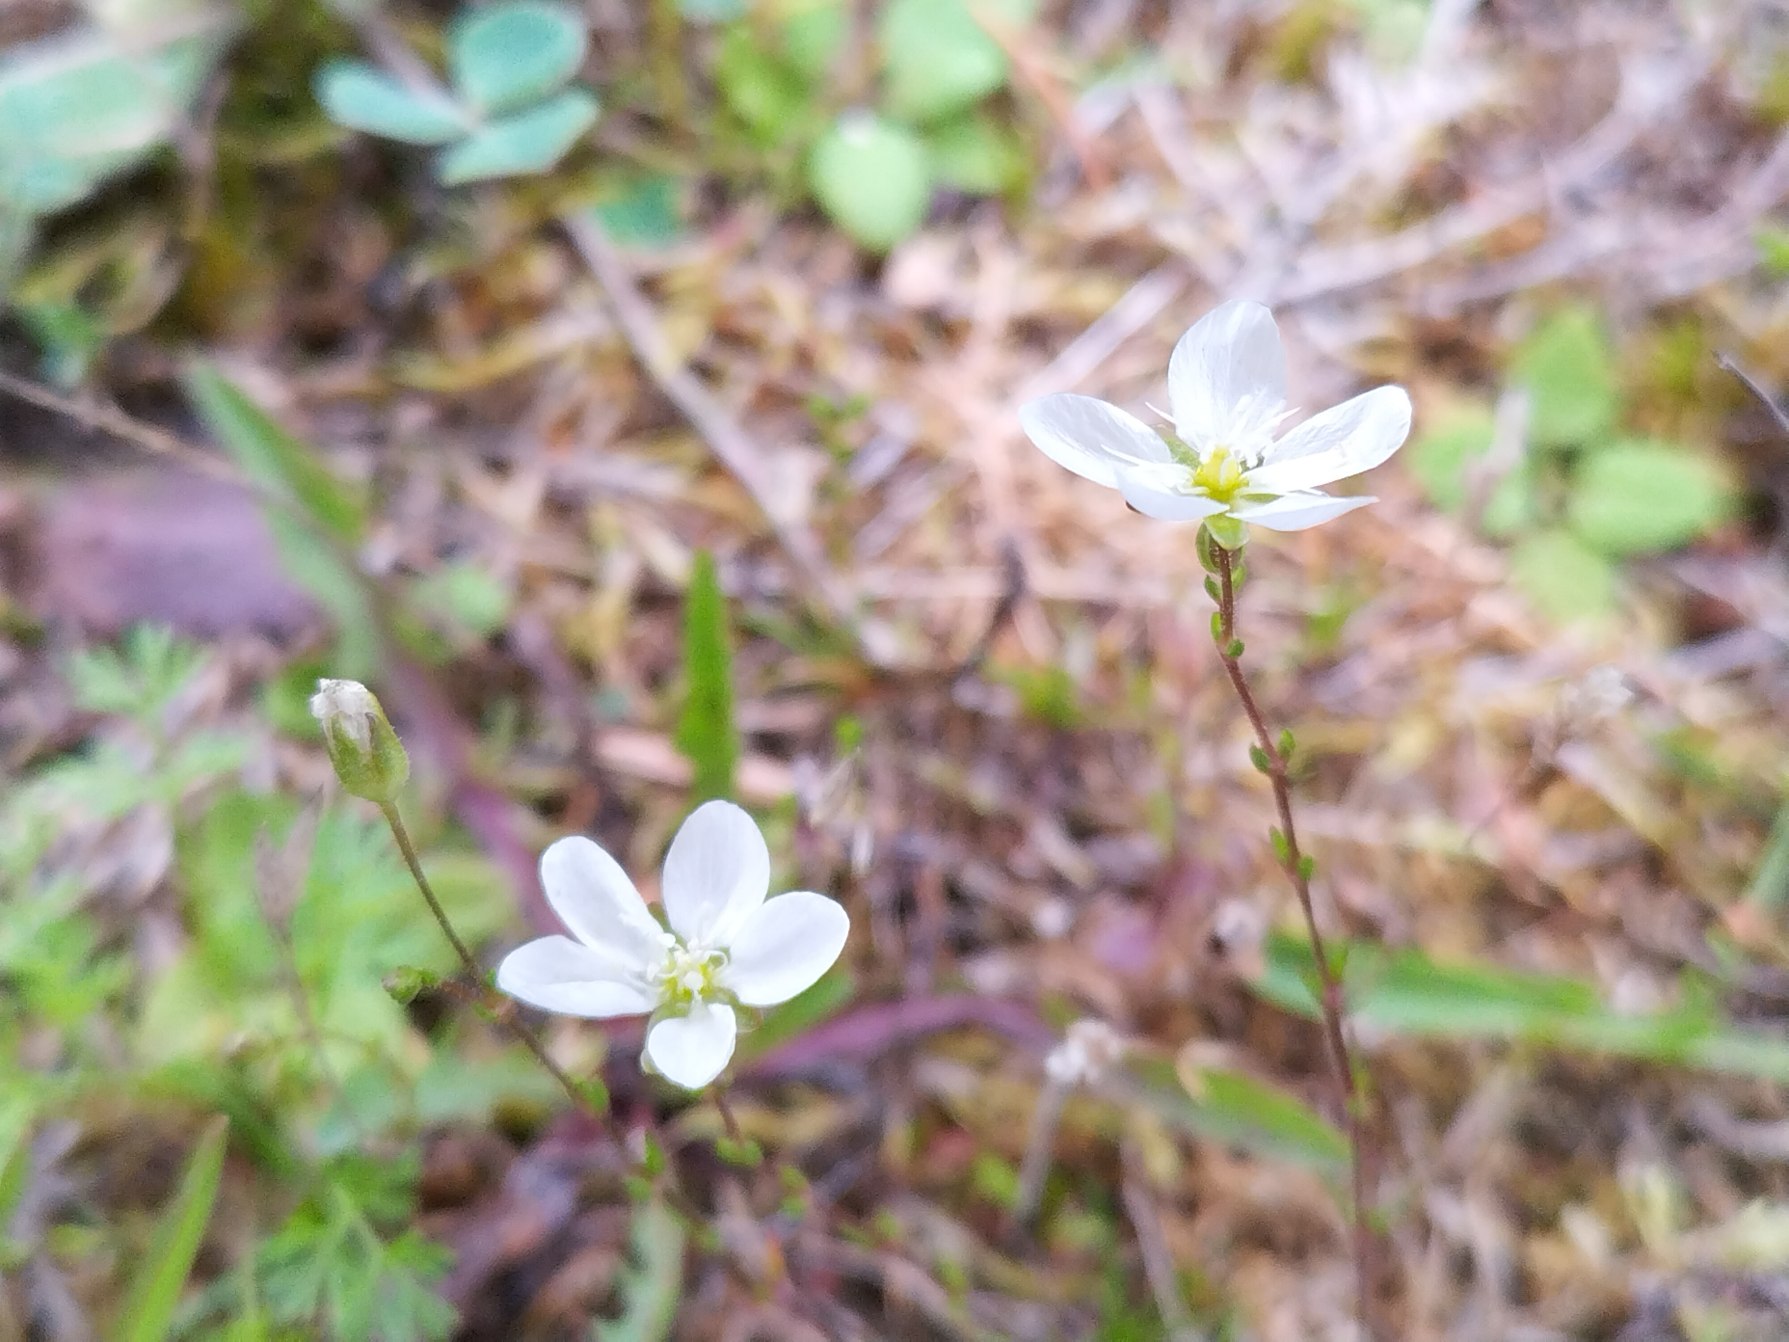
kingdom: Plantae
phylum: Tracheophyta
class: Magnoliopsida
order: Caryophyllales
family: Caryophyllaceae
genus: Sagina
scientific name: Sagina nodosa
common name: Knude-firling
